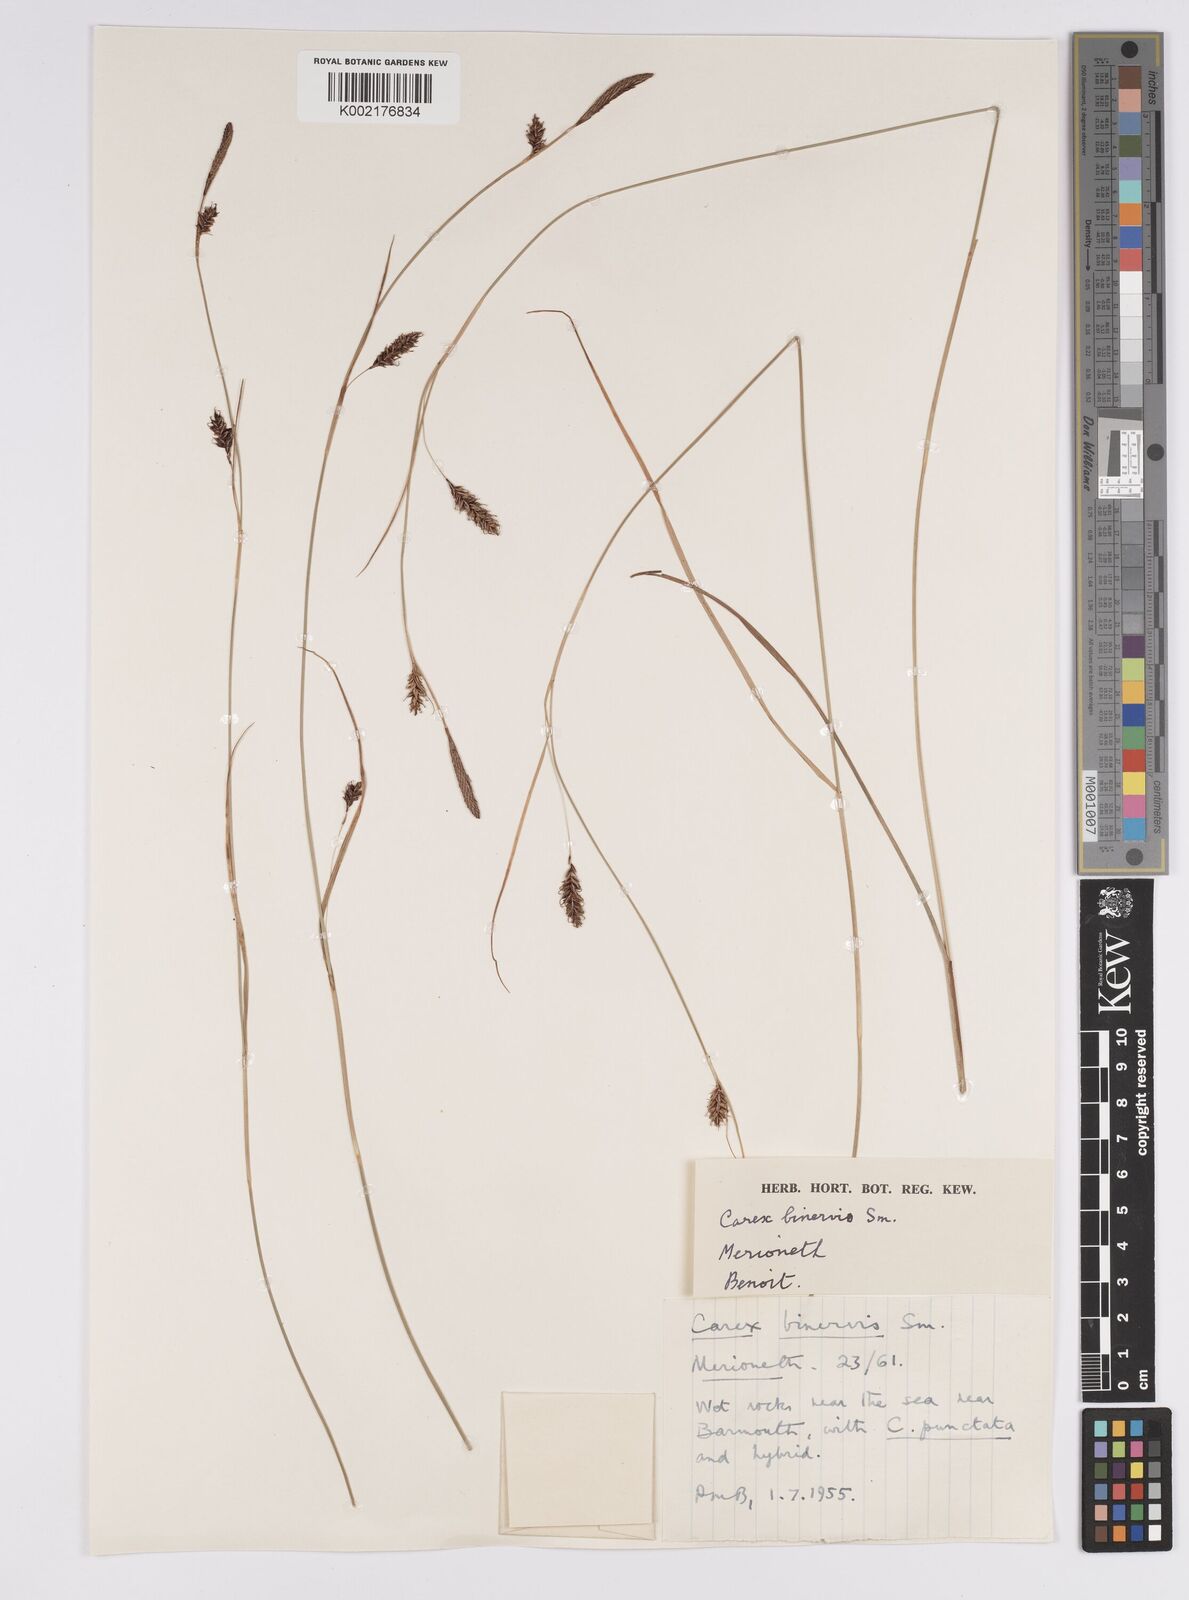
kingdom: Plantae
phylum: Tracheophyta
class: Liliopsida
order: Poales
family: Cyperaceae
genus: Carex
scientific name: Carex binervis
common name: Green-ribbed sedge
